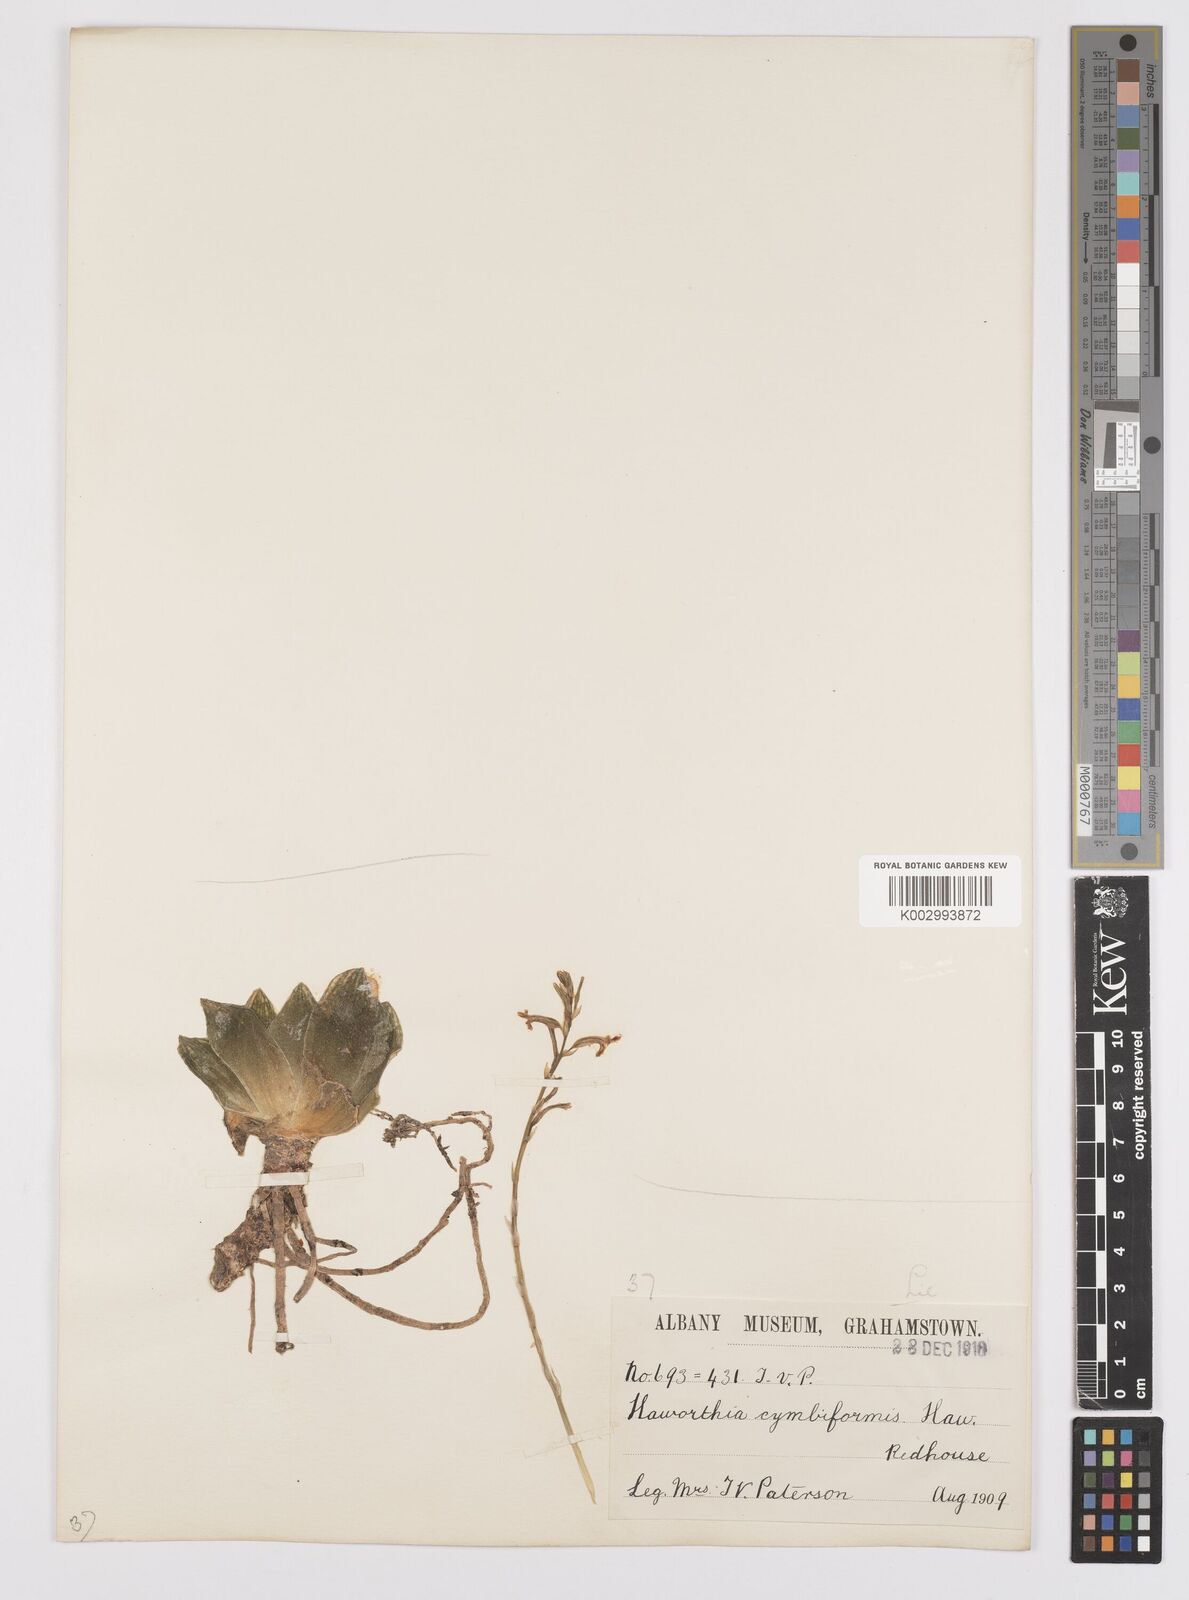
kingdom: Plantae
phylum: Tracheophyta
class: Liliopsida
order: Asparagales
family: Asphodelaceae
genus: Haworthia
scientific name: Haworthia cymbiformis
